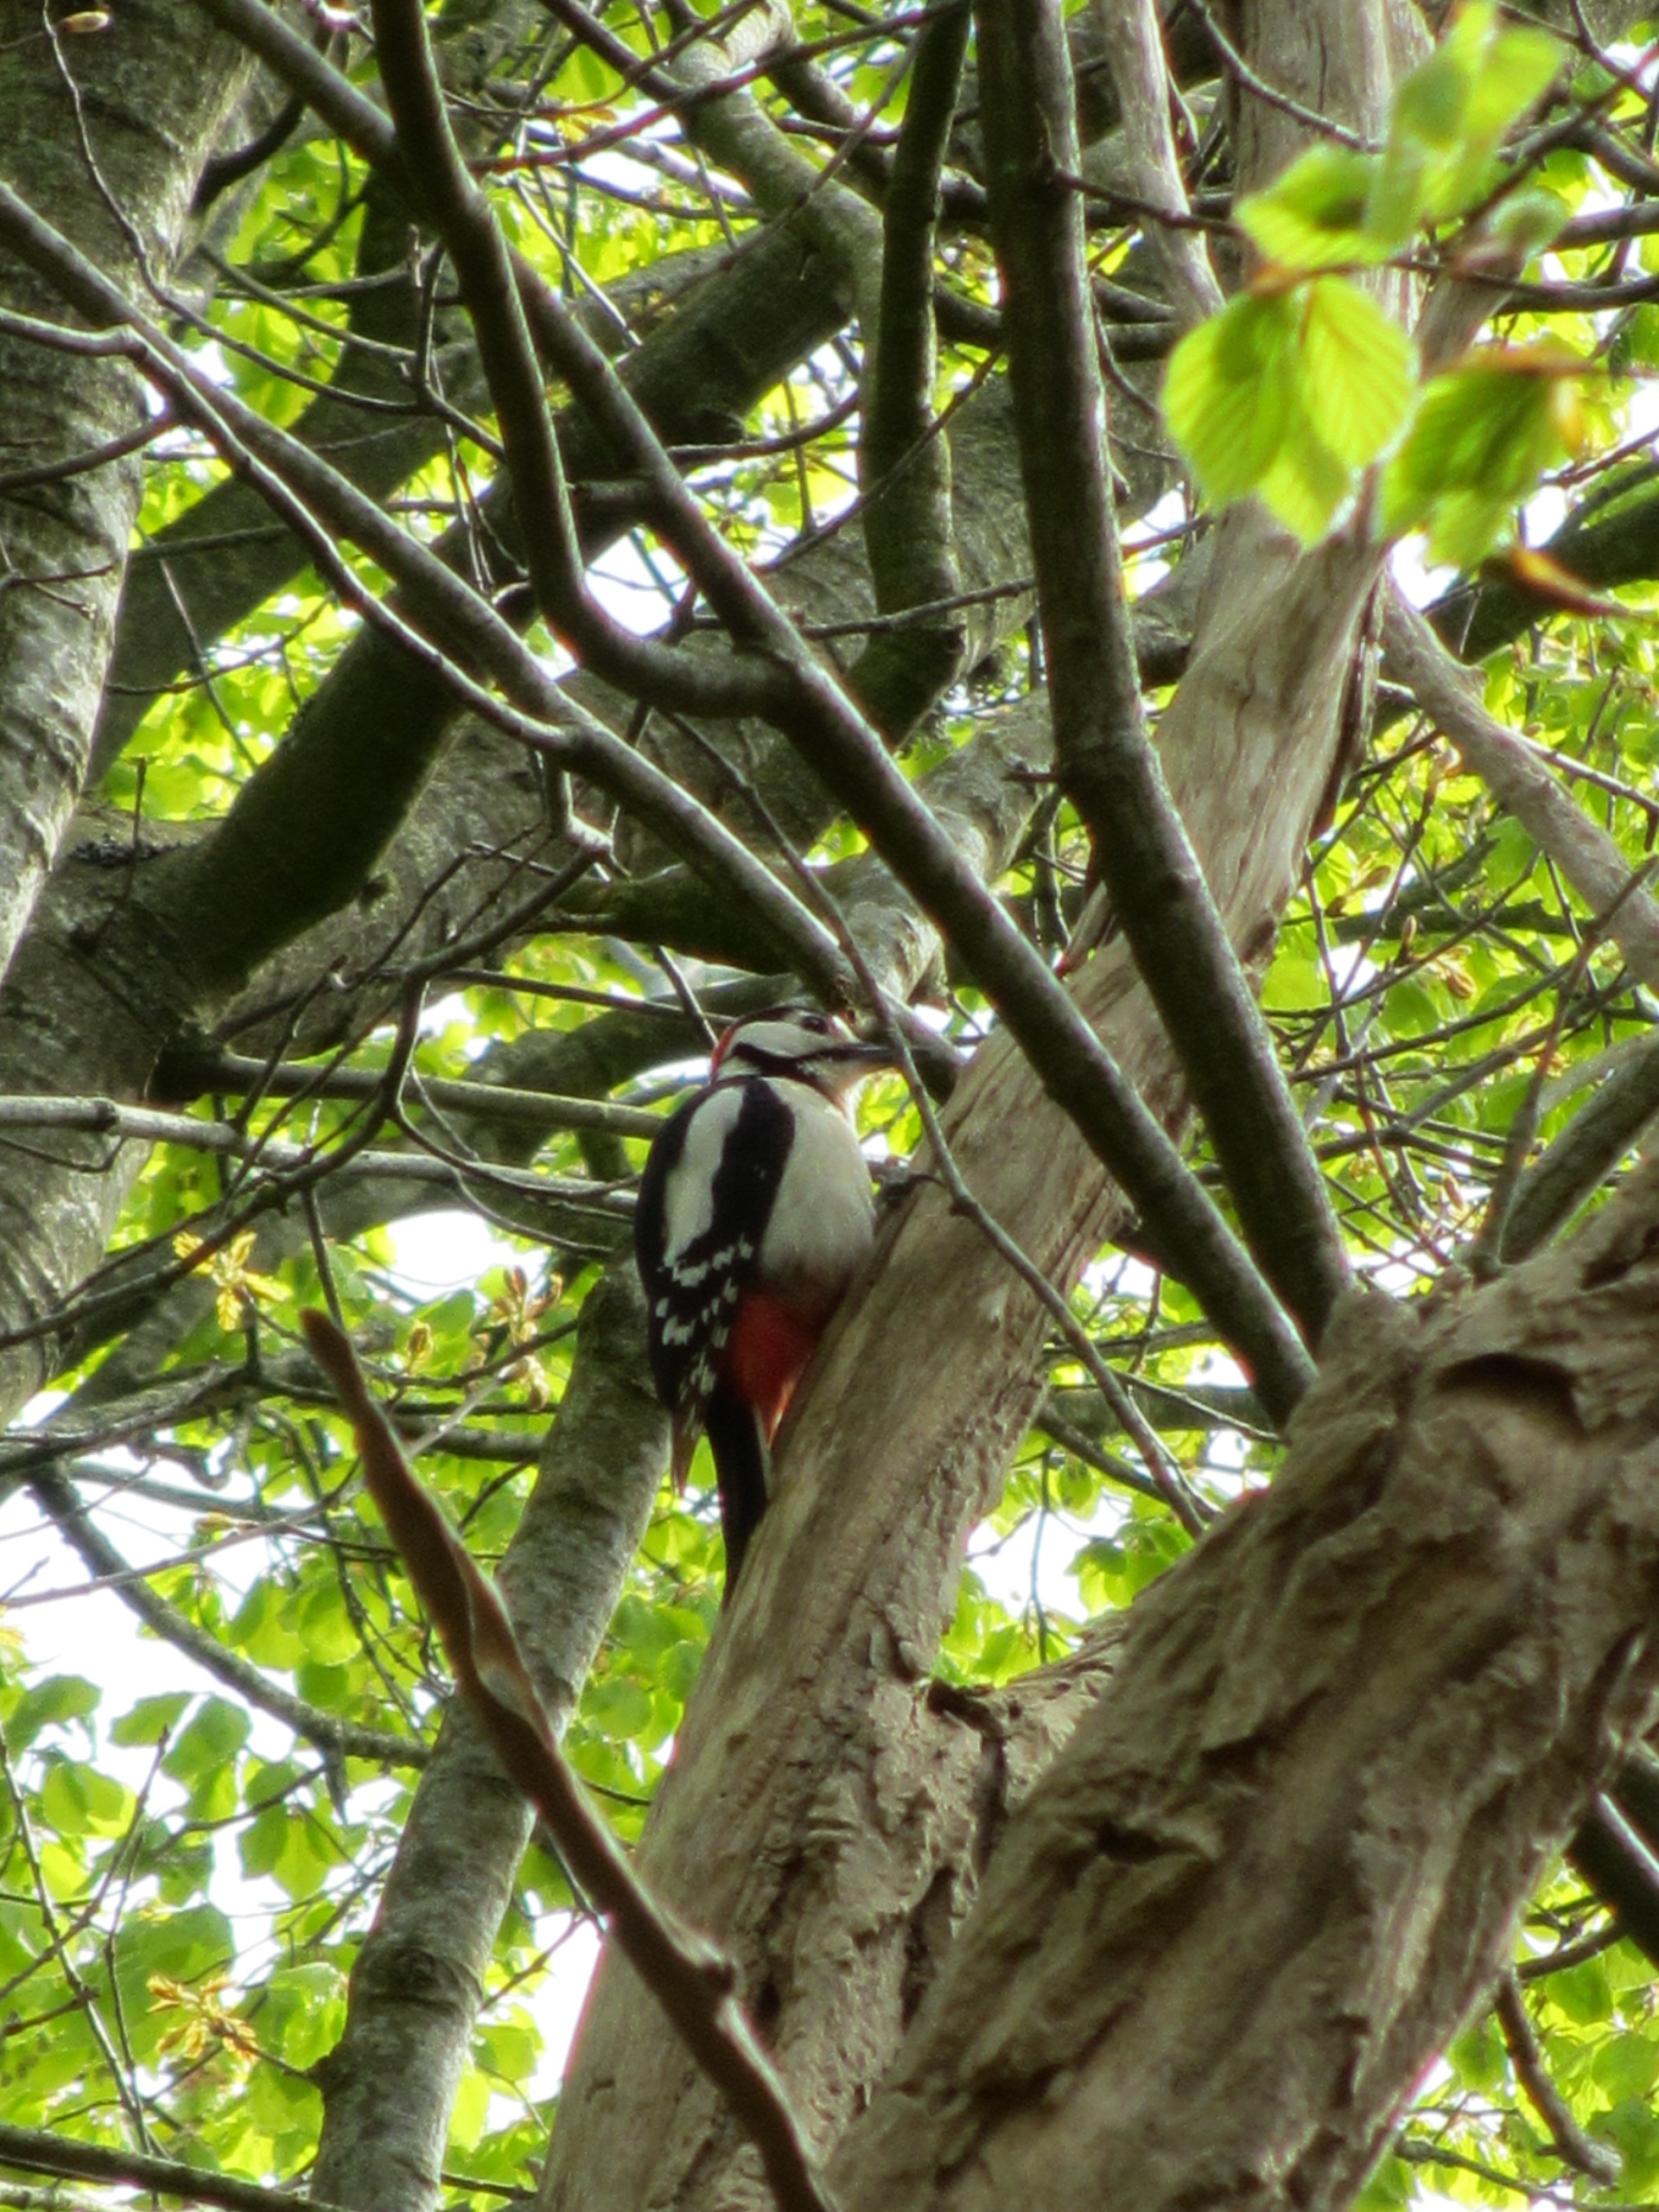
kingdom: Animalia
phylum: Chordata
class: Aves
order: Piciformes
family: Picidae
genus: Dendrocopos
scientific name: Dendrocopos major
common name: Stor flagspætte
